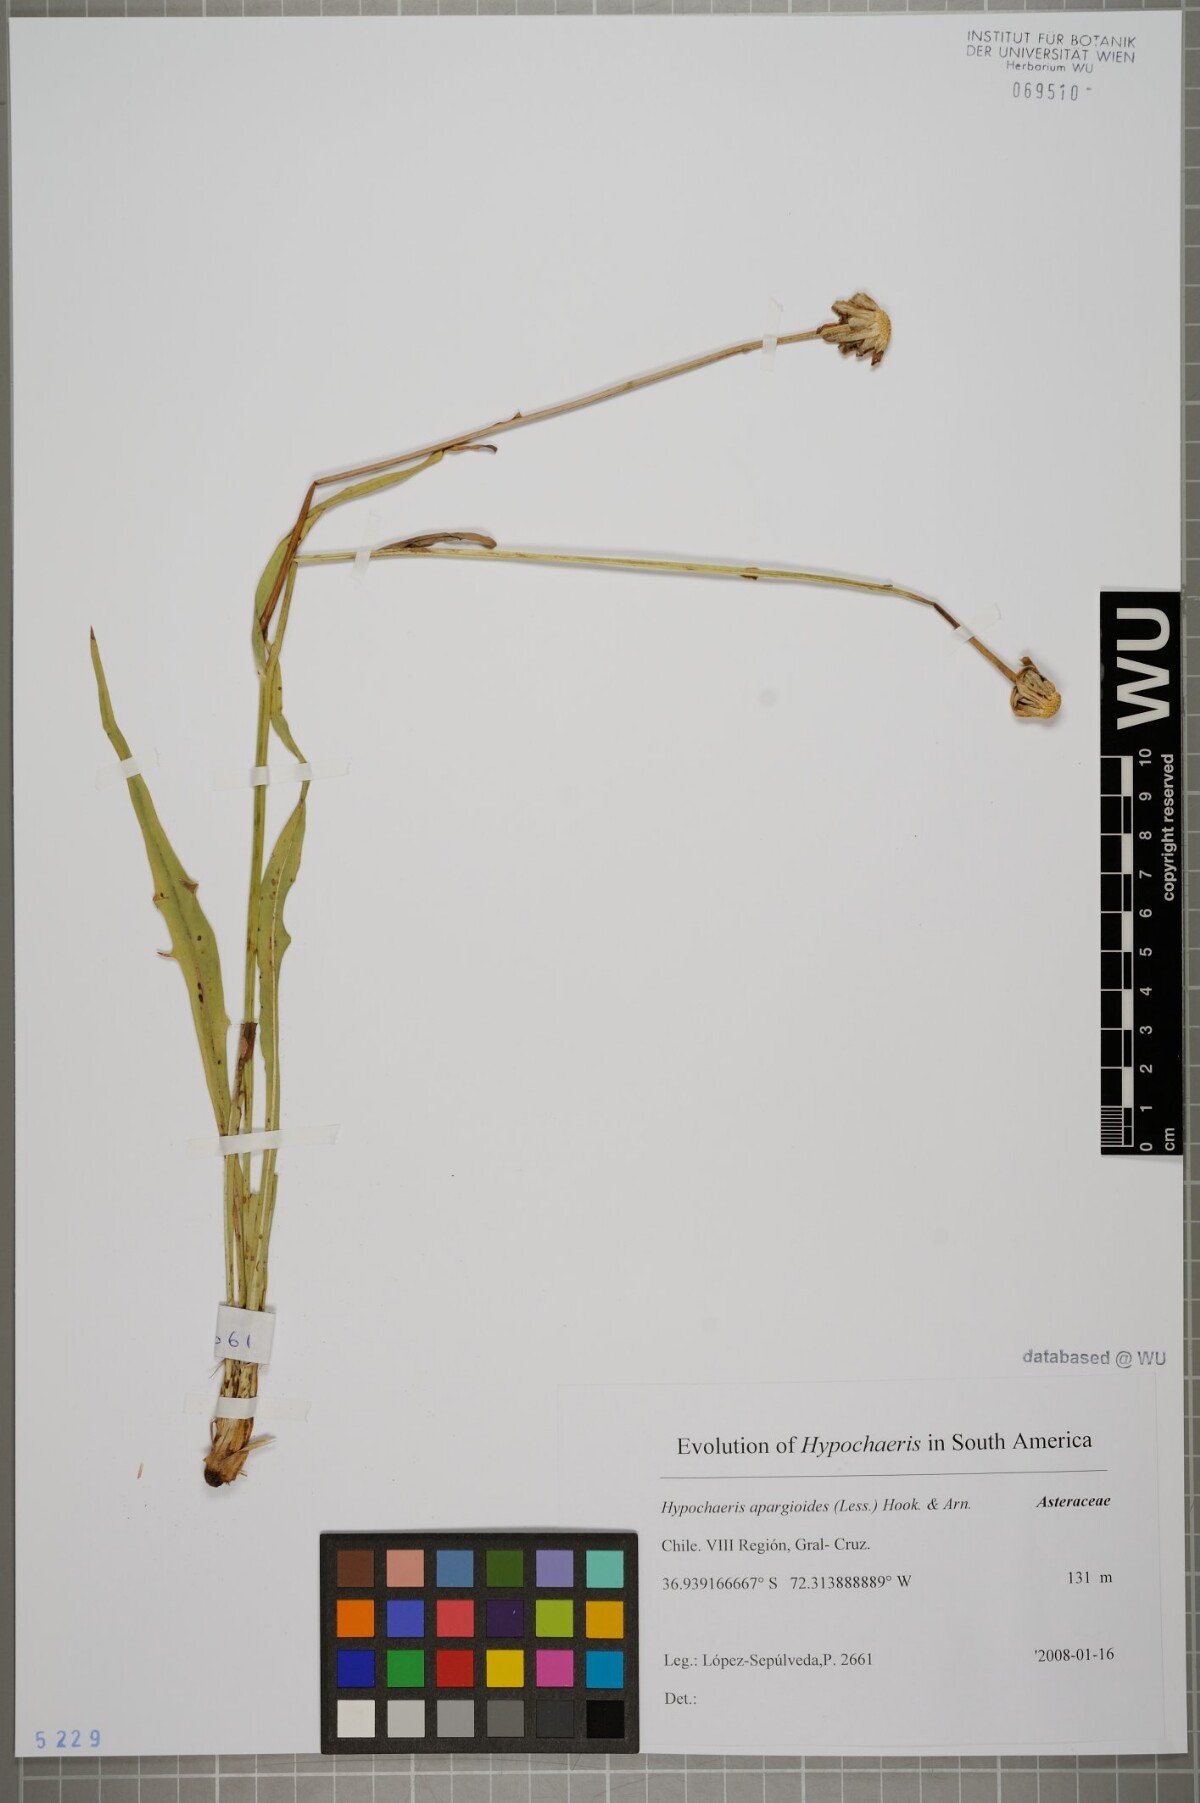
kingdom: Plantae
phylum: Tracheophyta
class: Magnoliopsida
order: Asterales
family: Asteraceae
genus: Hypochaeris
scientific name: Hypochaeris apargioides
